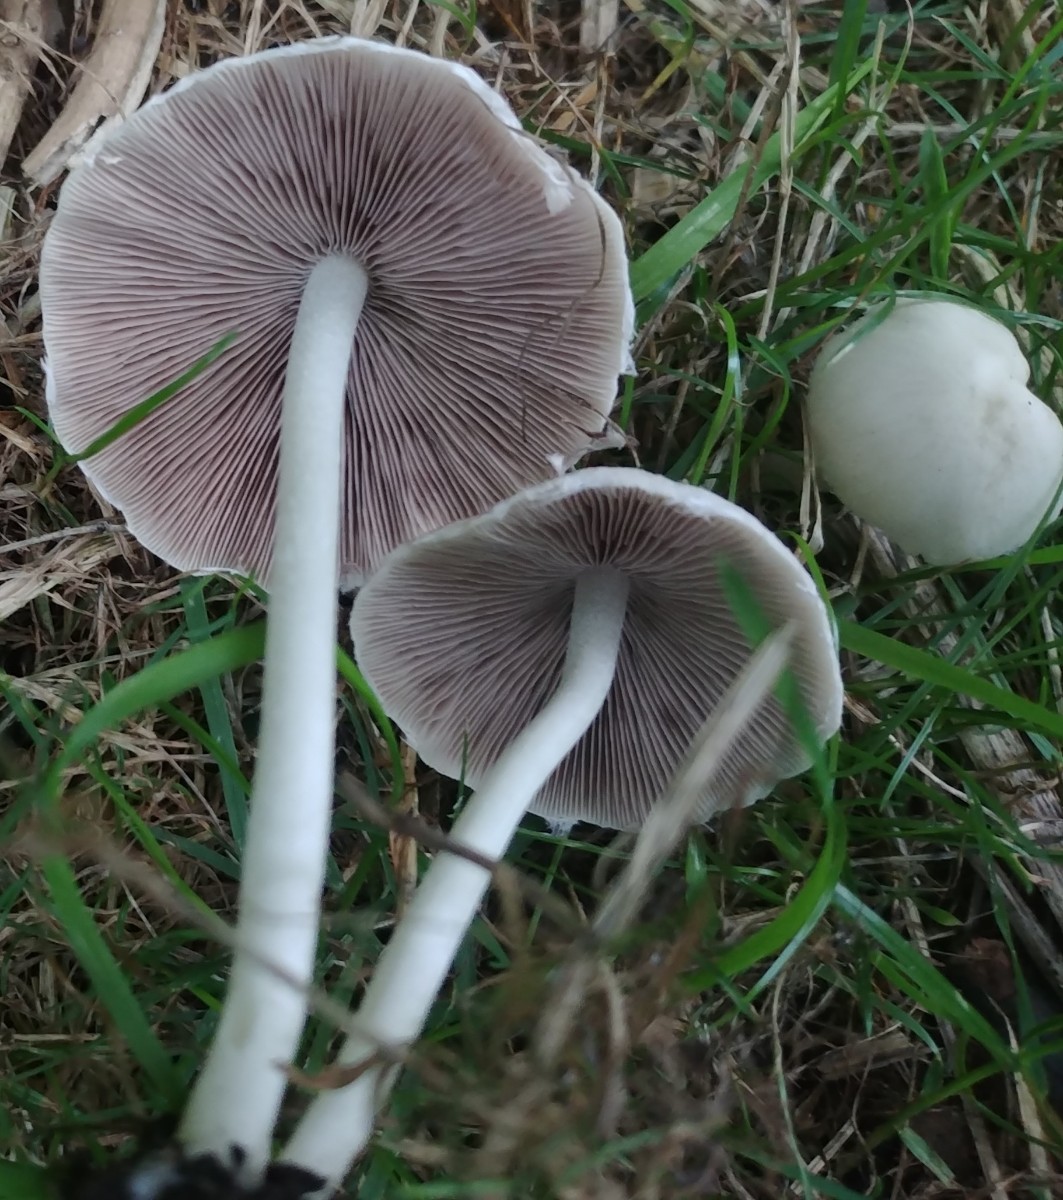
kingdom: Fungi
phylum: Basidiomycota
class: Agaricomycetes
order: Agaricales
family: Psathyrellaceae
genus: Candolleomyces
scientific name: Candolleomyces candolleanus
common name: Candolles mørkhat
